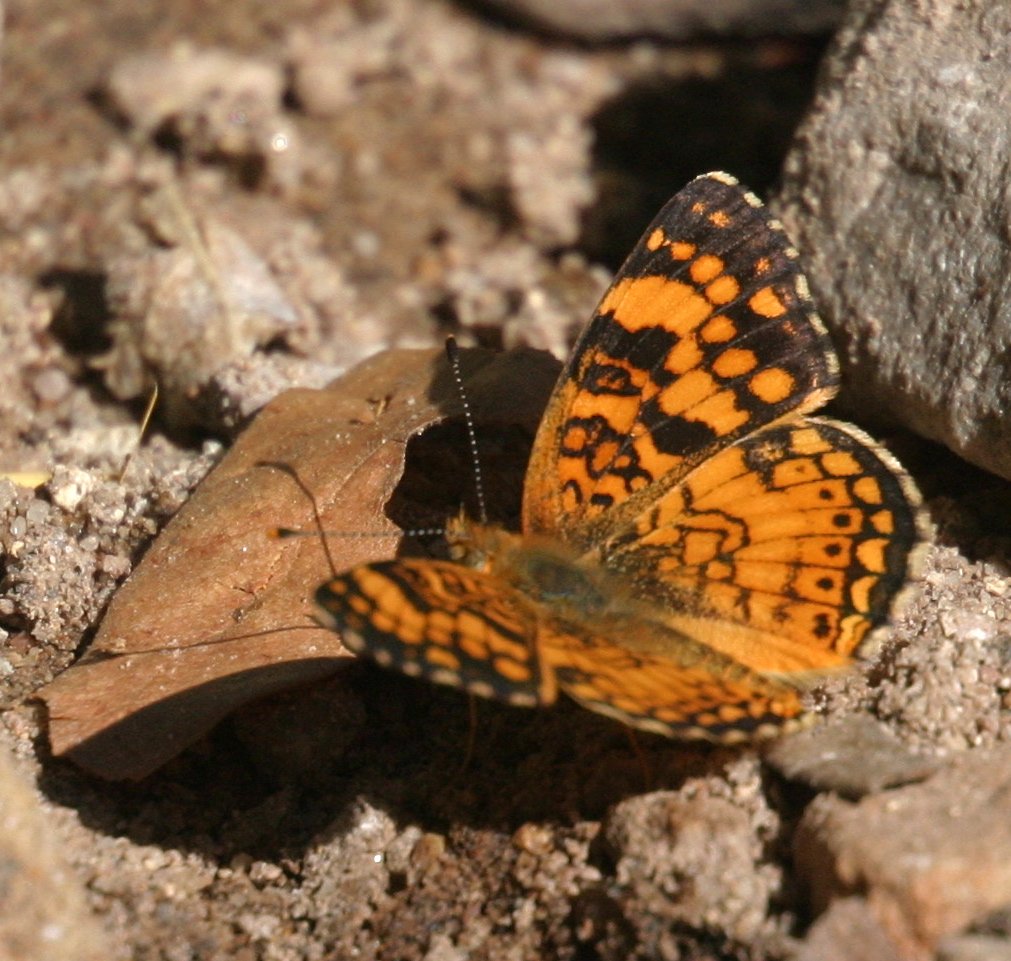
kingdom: Animalia
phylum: Arthropoda
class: Insecta
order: Lepidoptera
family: Nymphalidae
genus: Eresia
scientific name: Eresia aveyrona
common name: Mylitta Crescent
